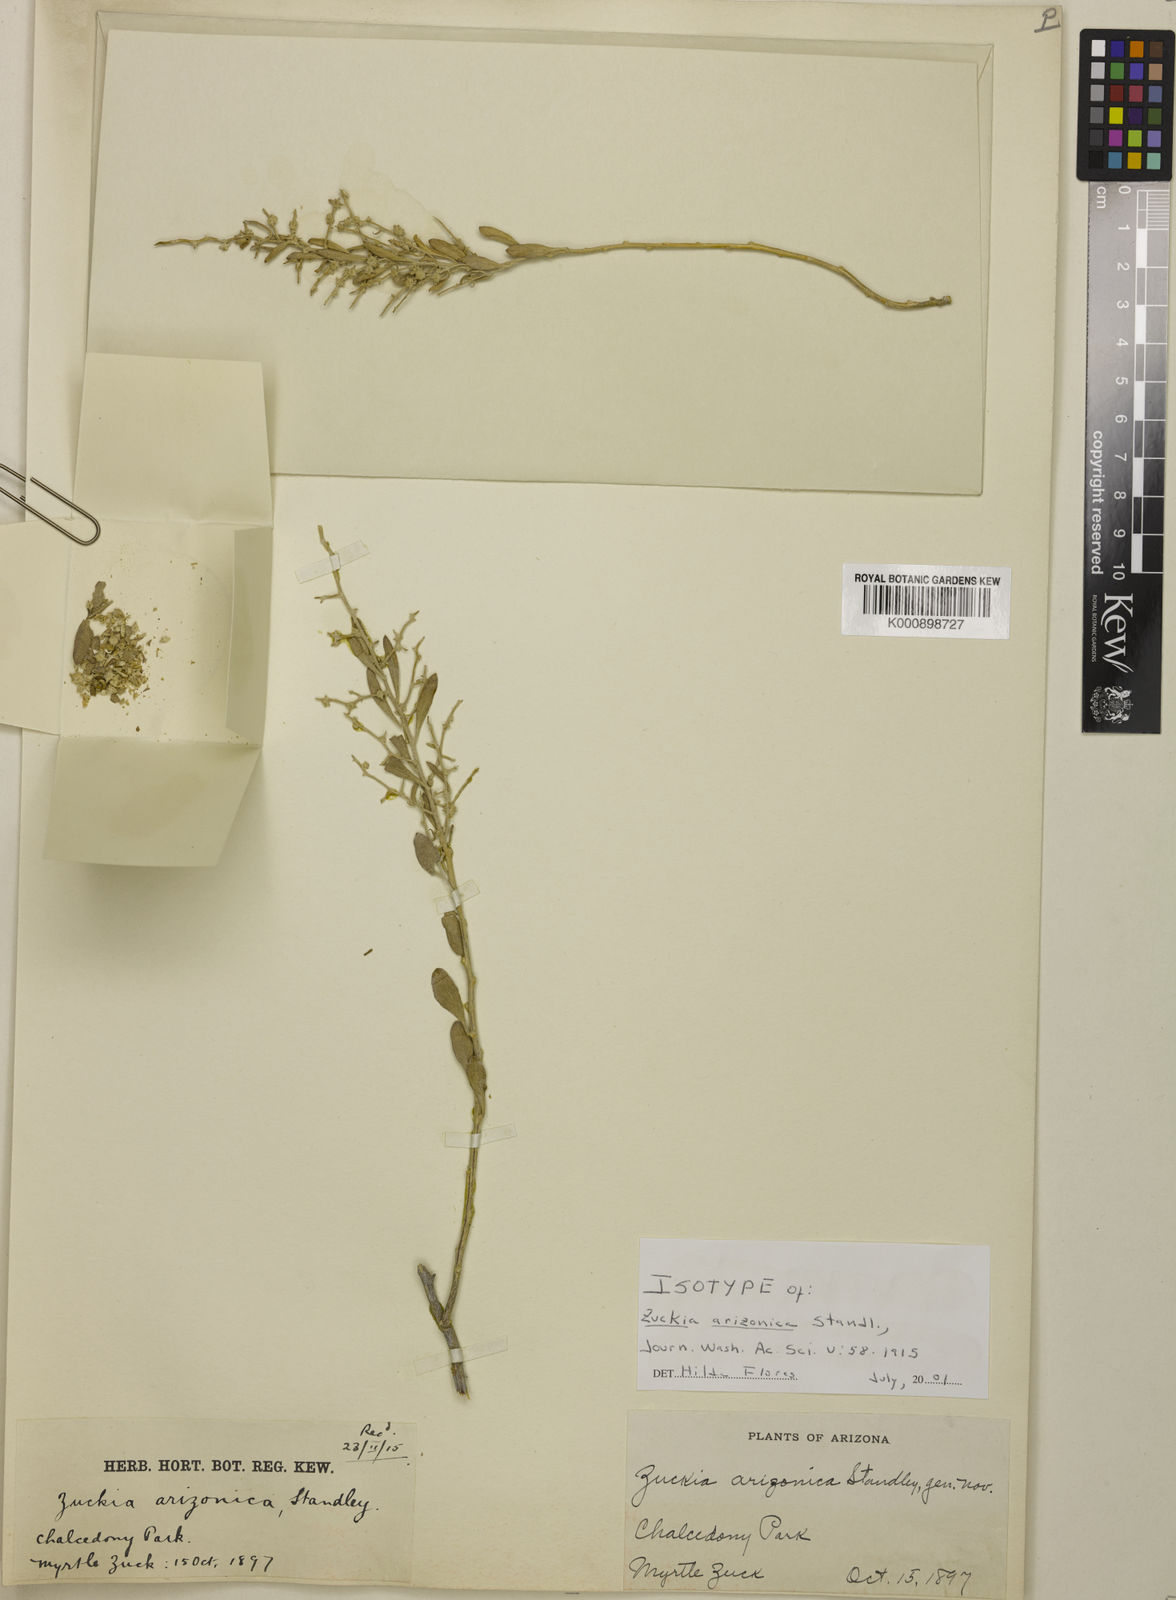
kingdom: Plantae
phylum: Tracheophyta
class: Magnoliopsida
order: Caryophyllales
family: Amaranthaceae
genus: Grayia
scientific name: Grayia arizonica
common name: Arizona siltbush
